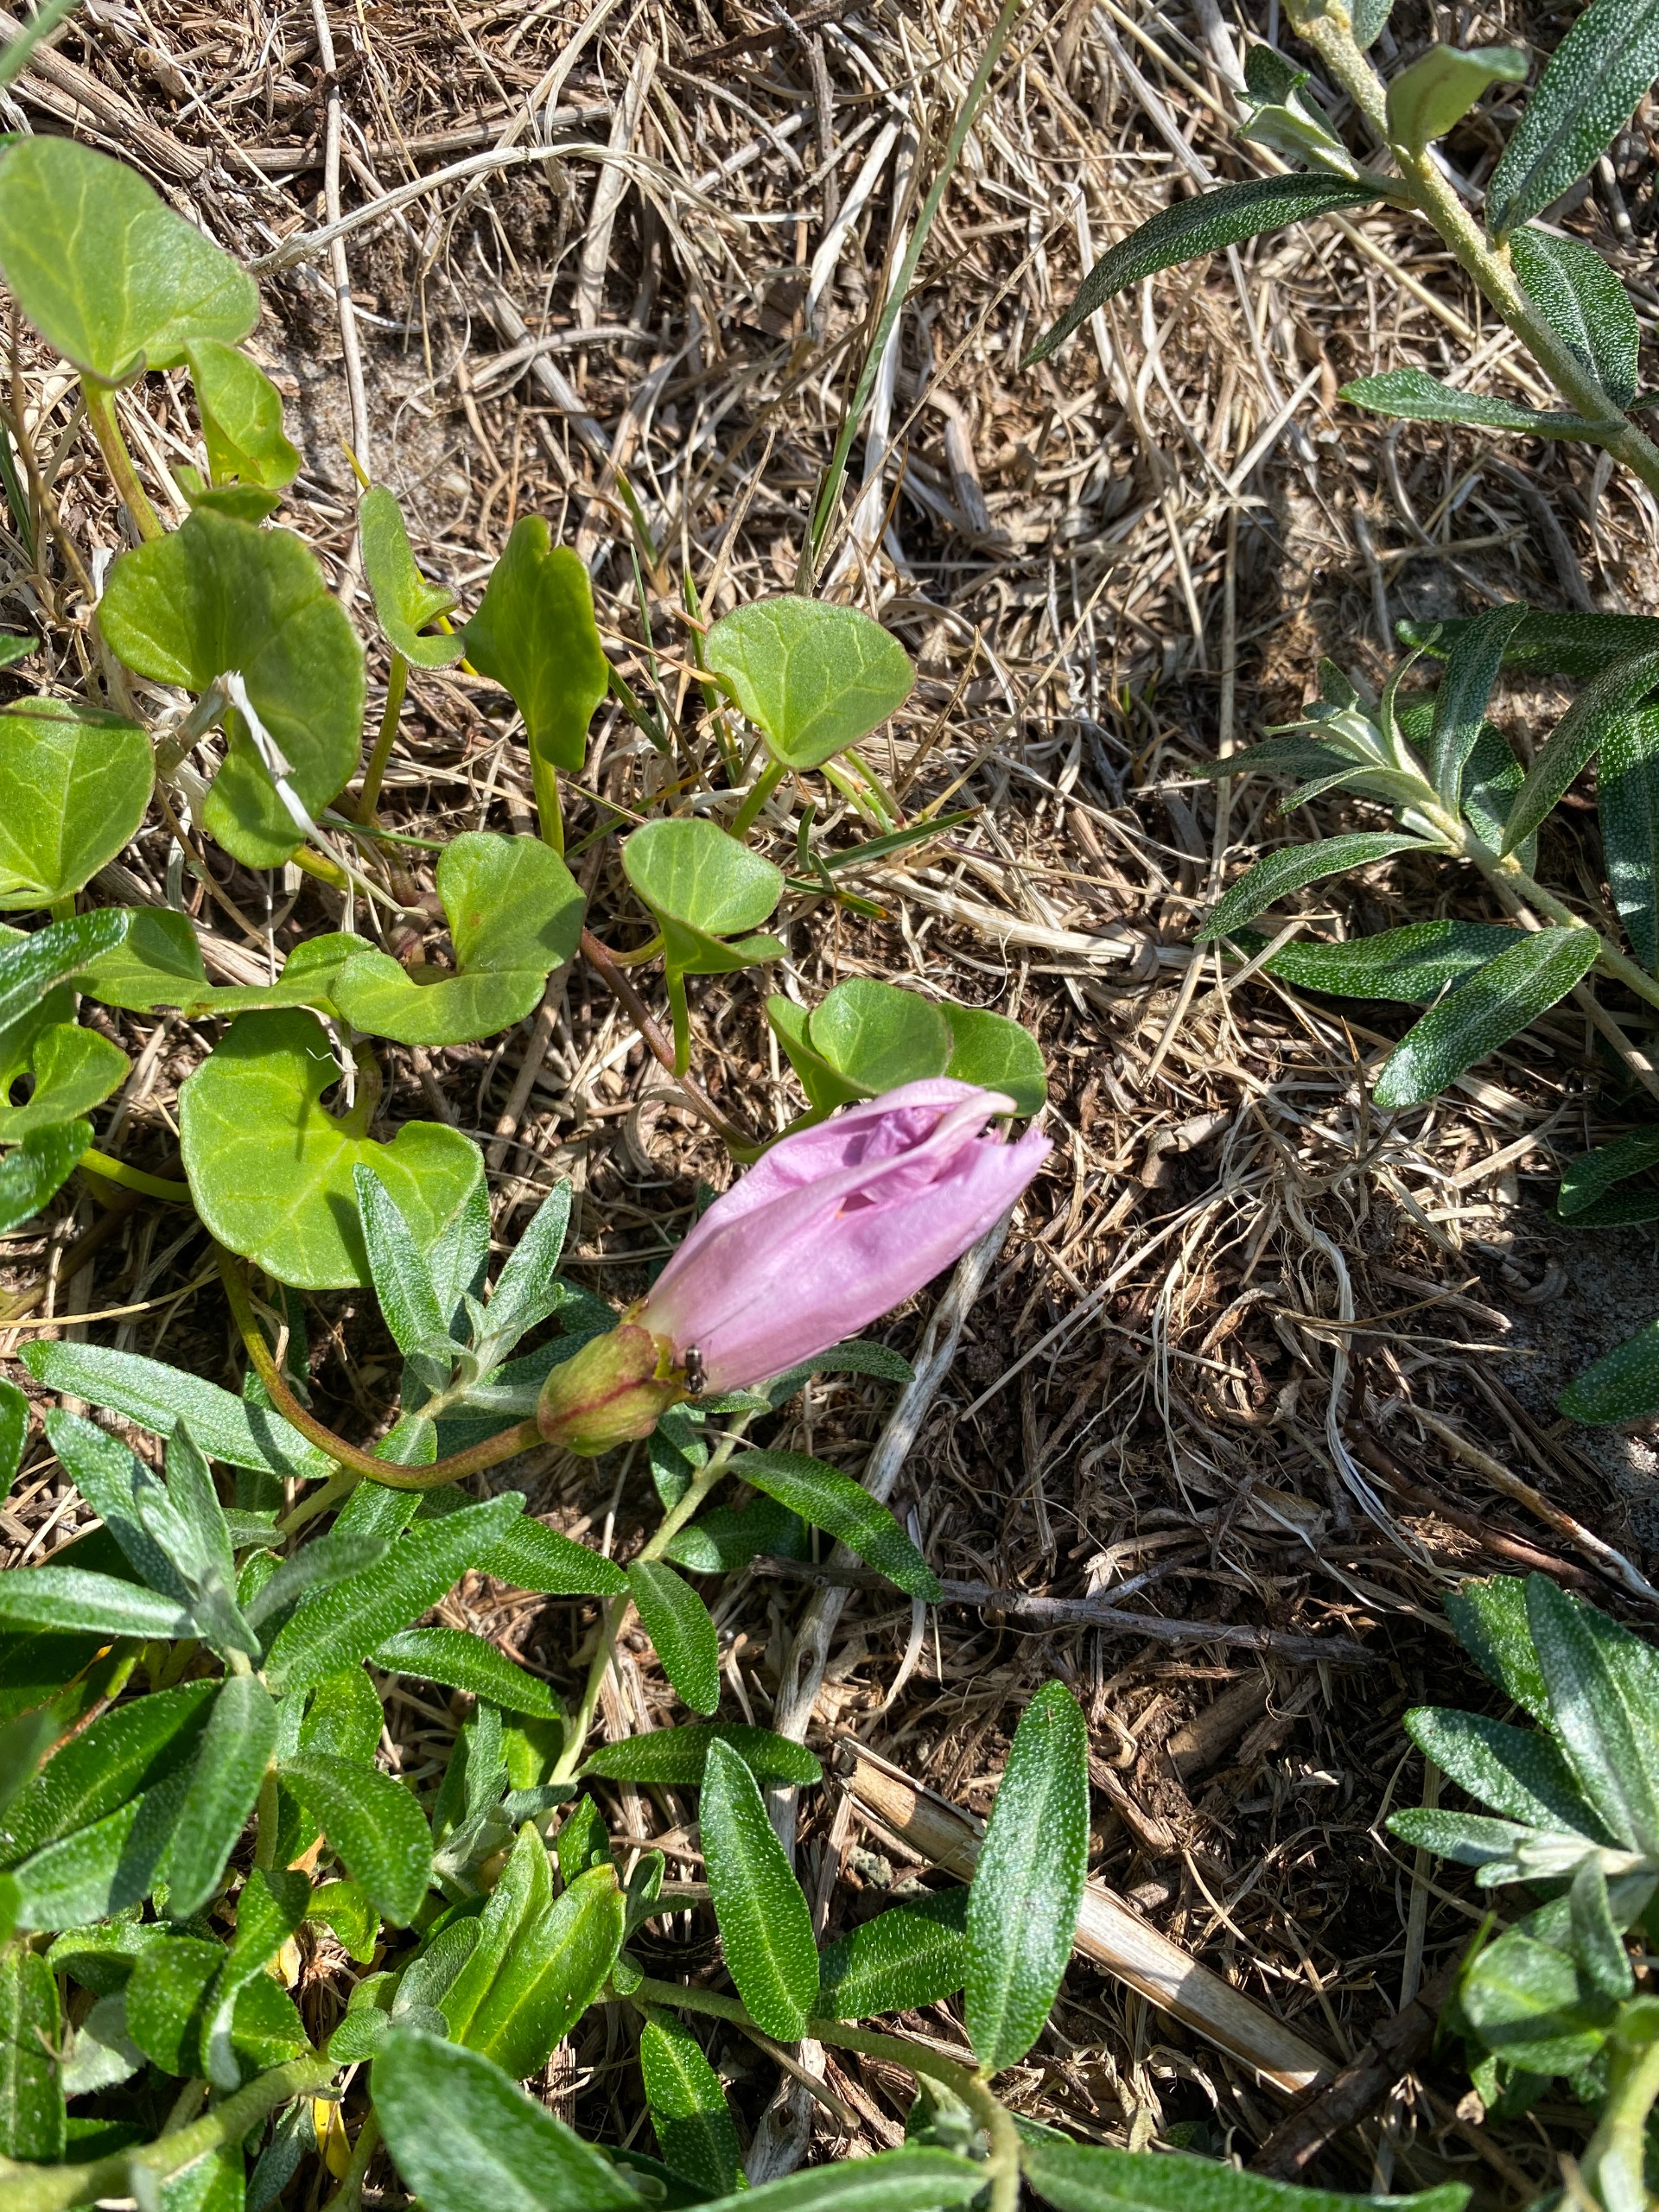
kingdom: Plantae
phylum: Tracheophyta
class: Magnoliopsida
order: Solanales
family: Convolvulaceae
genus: Calystegia
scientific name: Calystegia soldanella
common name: Strand-snerle
